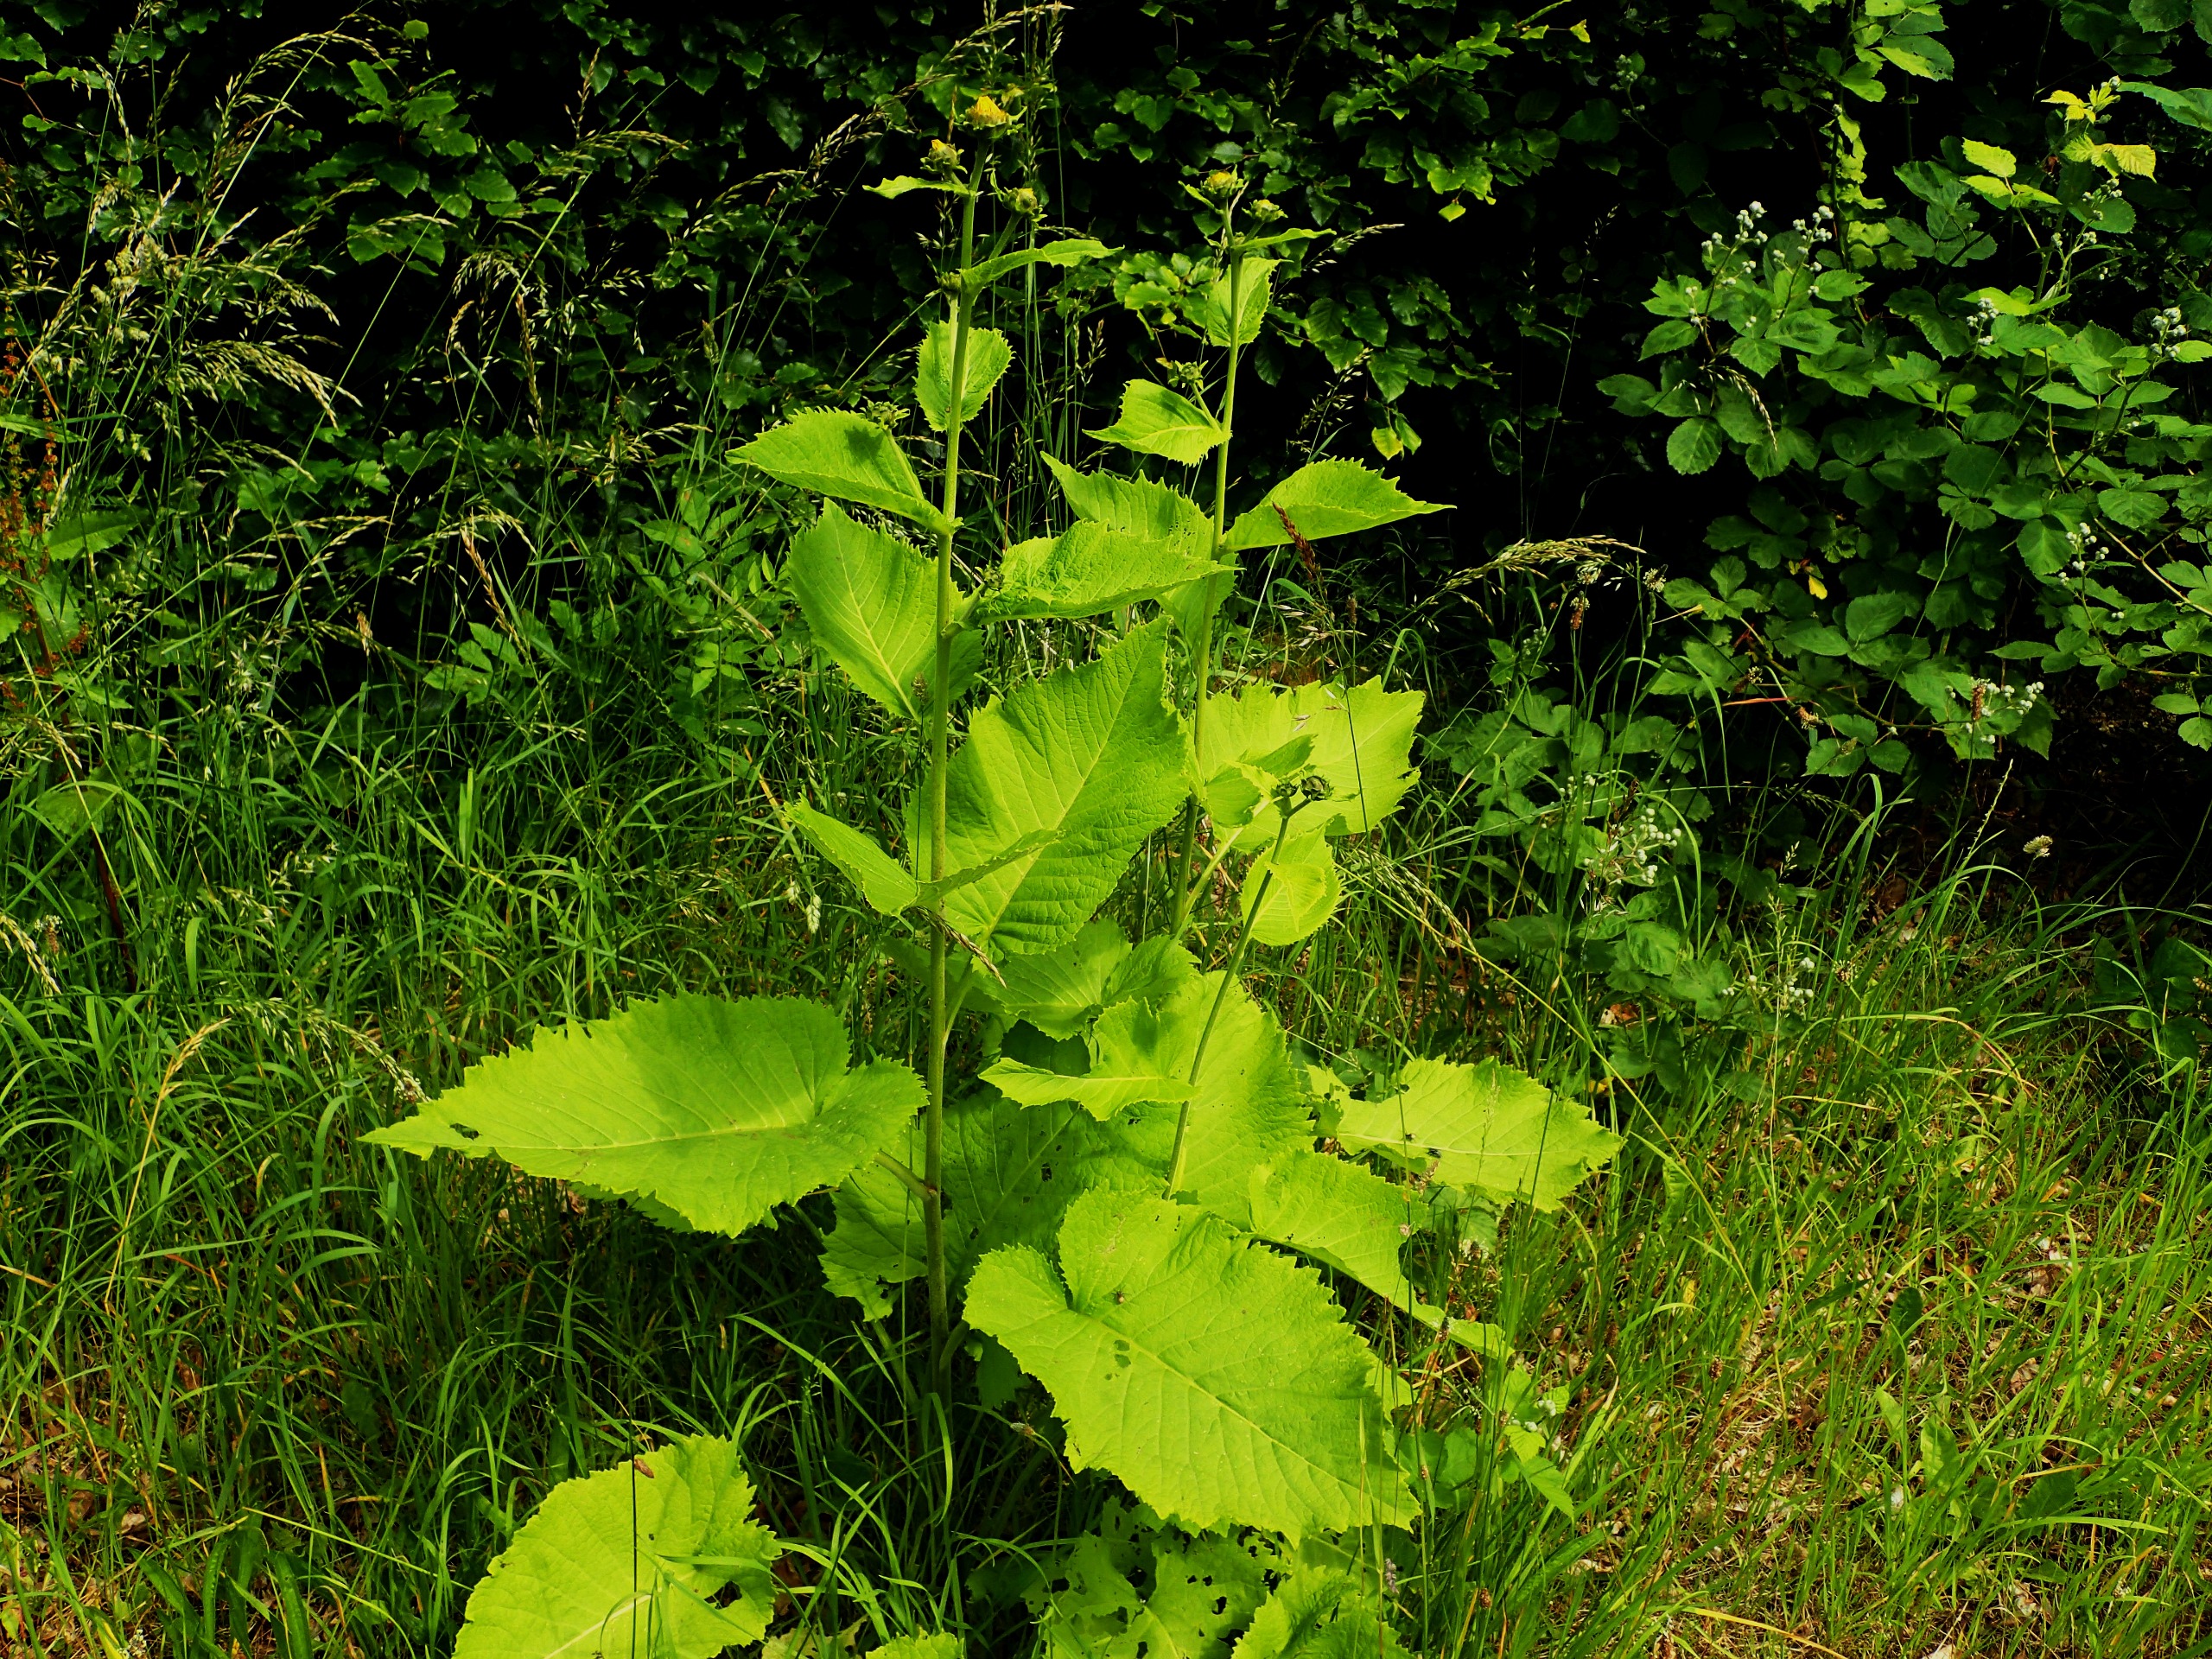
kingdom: Plantae
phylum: Tracheophyta
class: Magnoliopsida
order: Asterales
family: Asteraceae
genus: Telekia
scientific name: Telekia speciosa
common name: Tusindstråle
